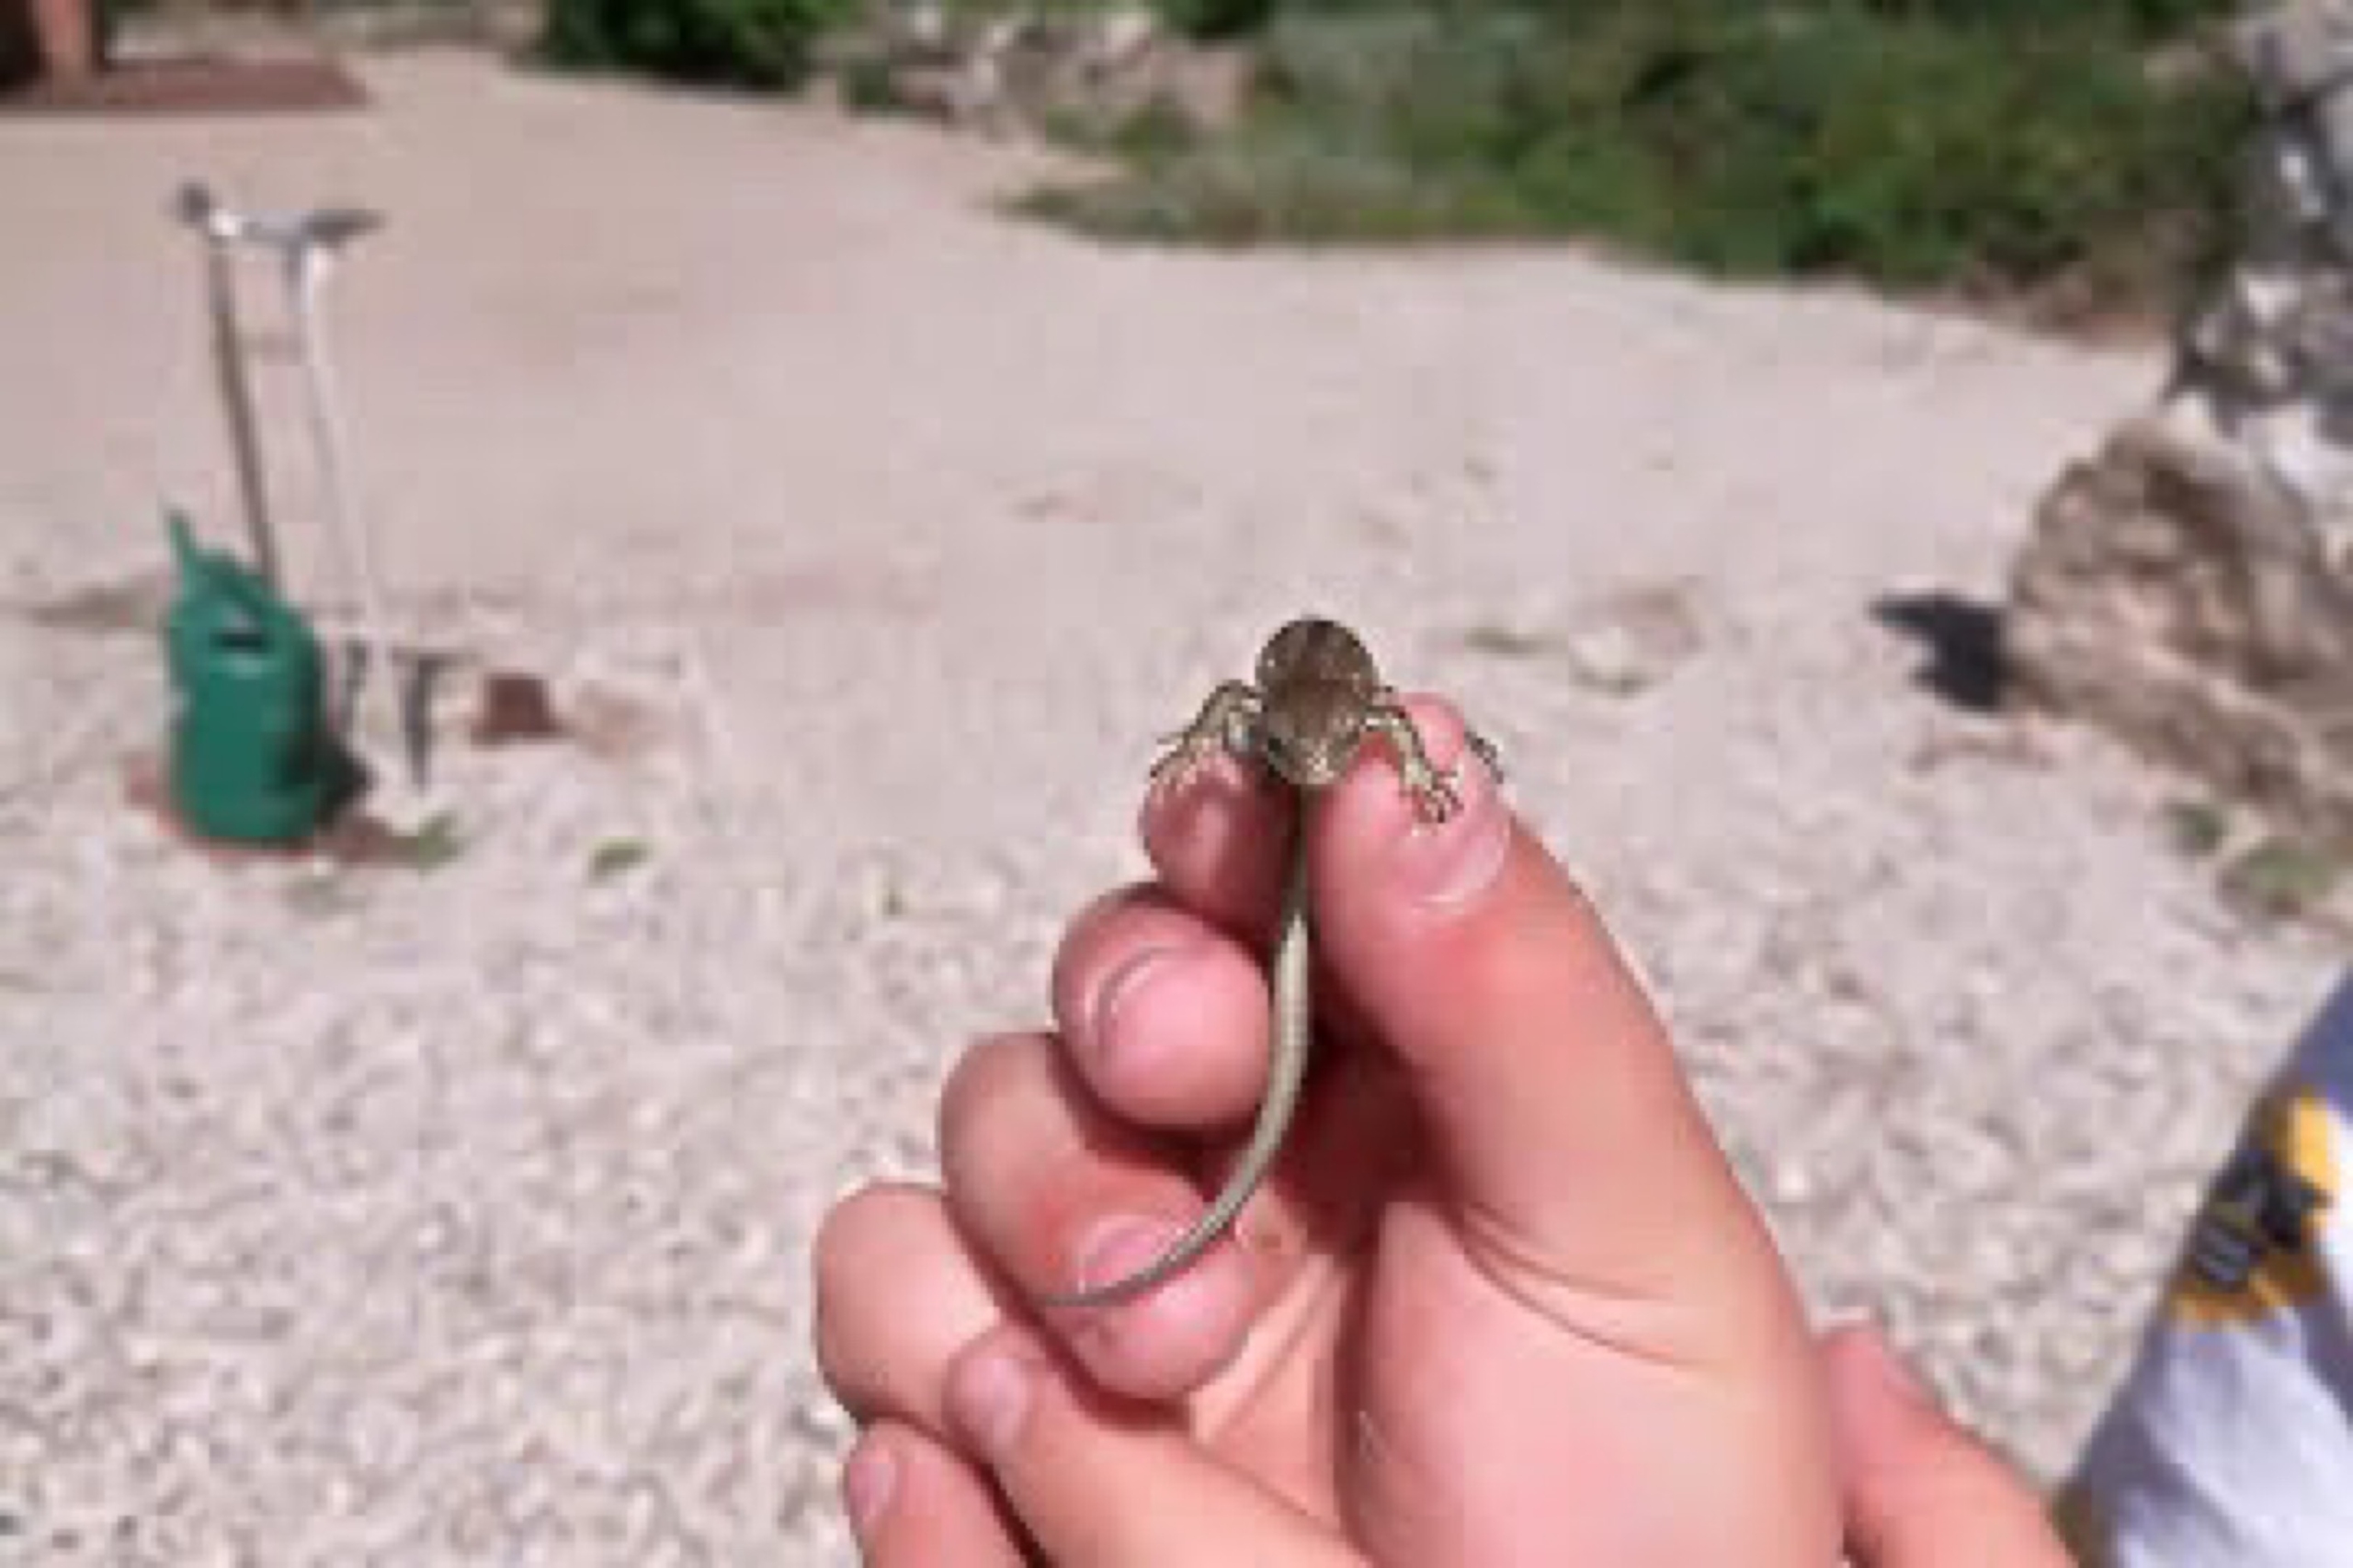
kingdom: Animalia
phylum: Chordata
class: Squamata
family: Lacertidae
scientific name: Lacertidae
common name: Firben
